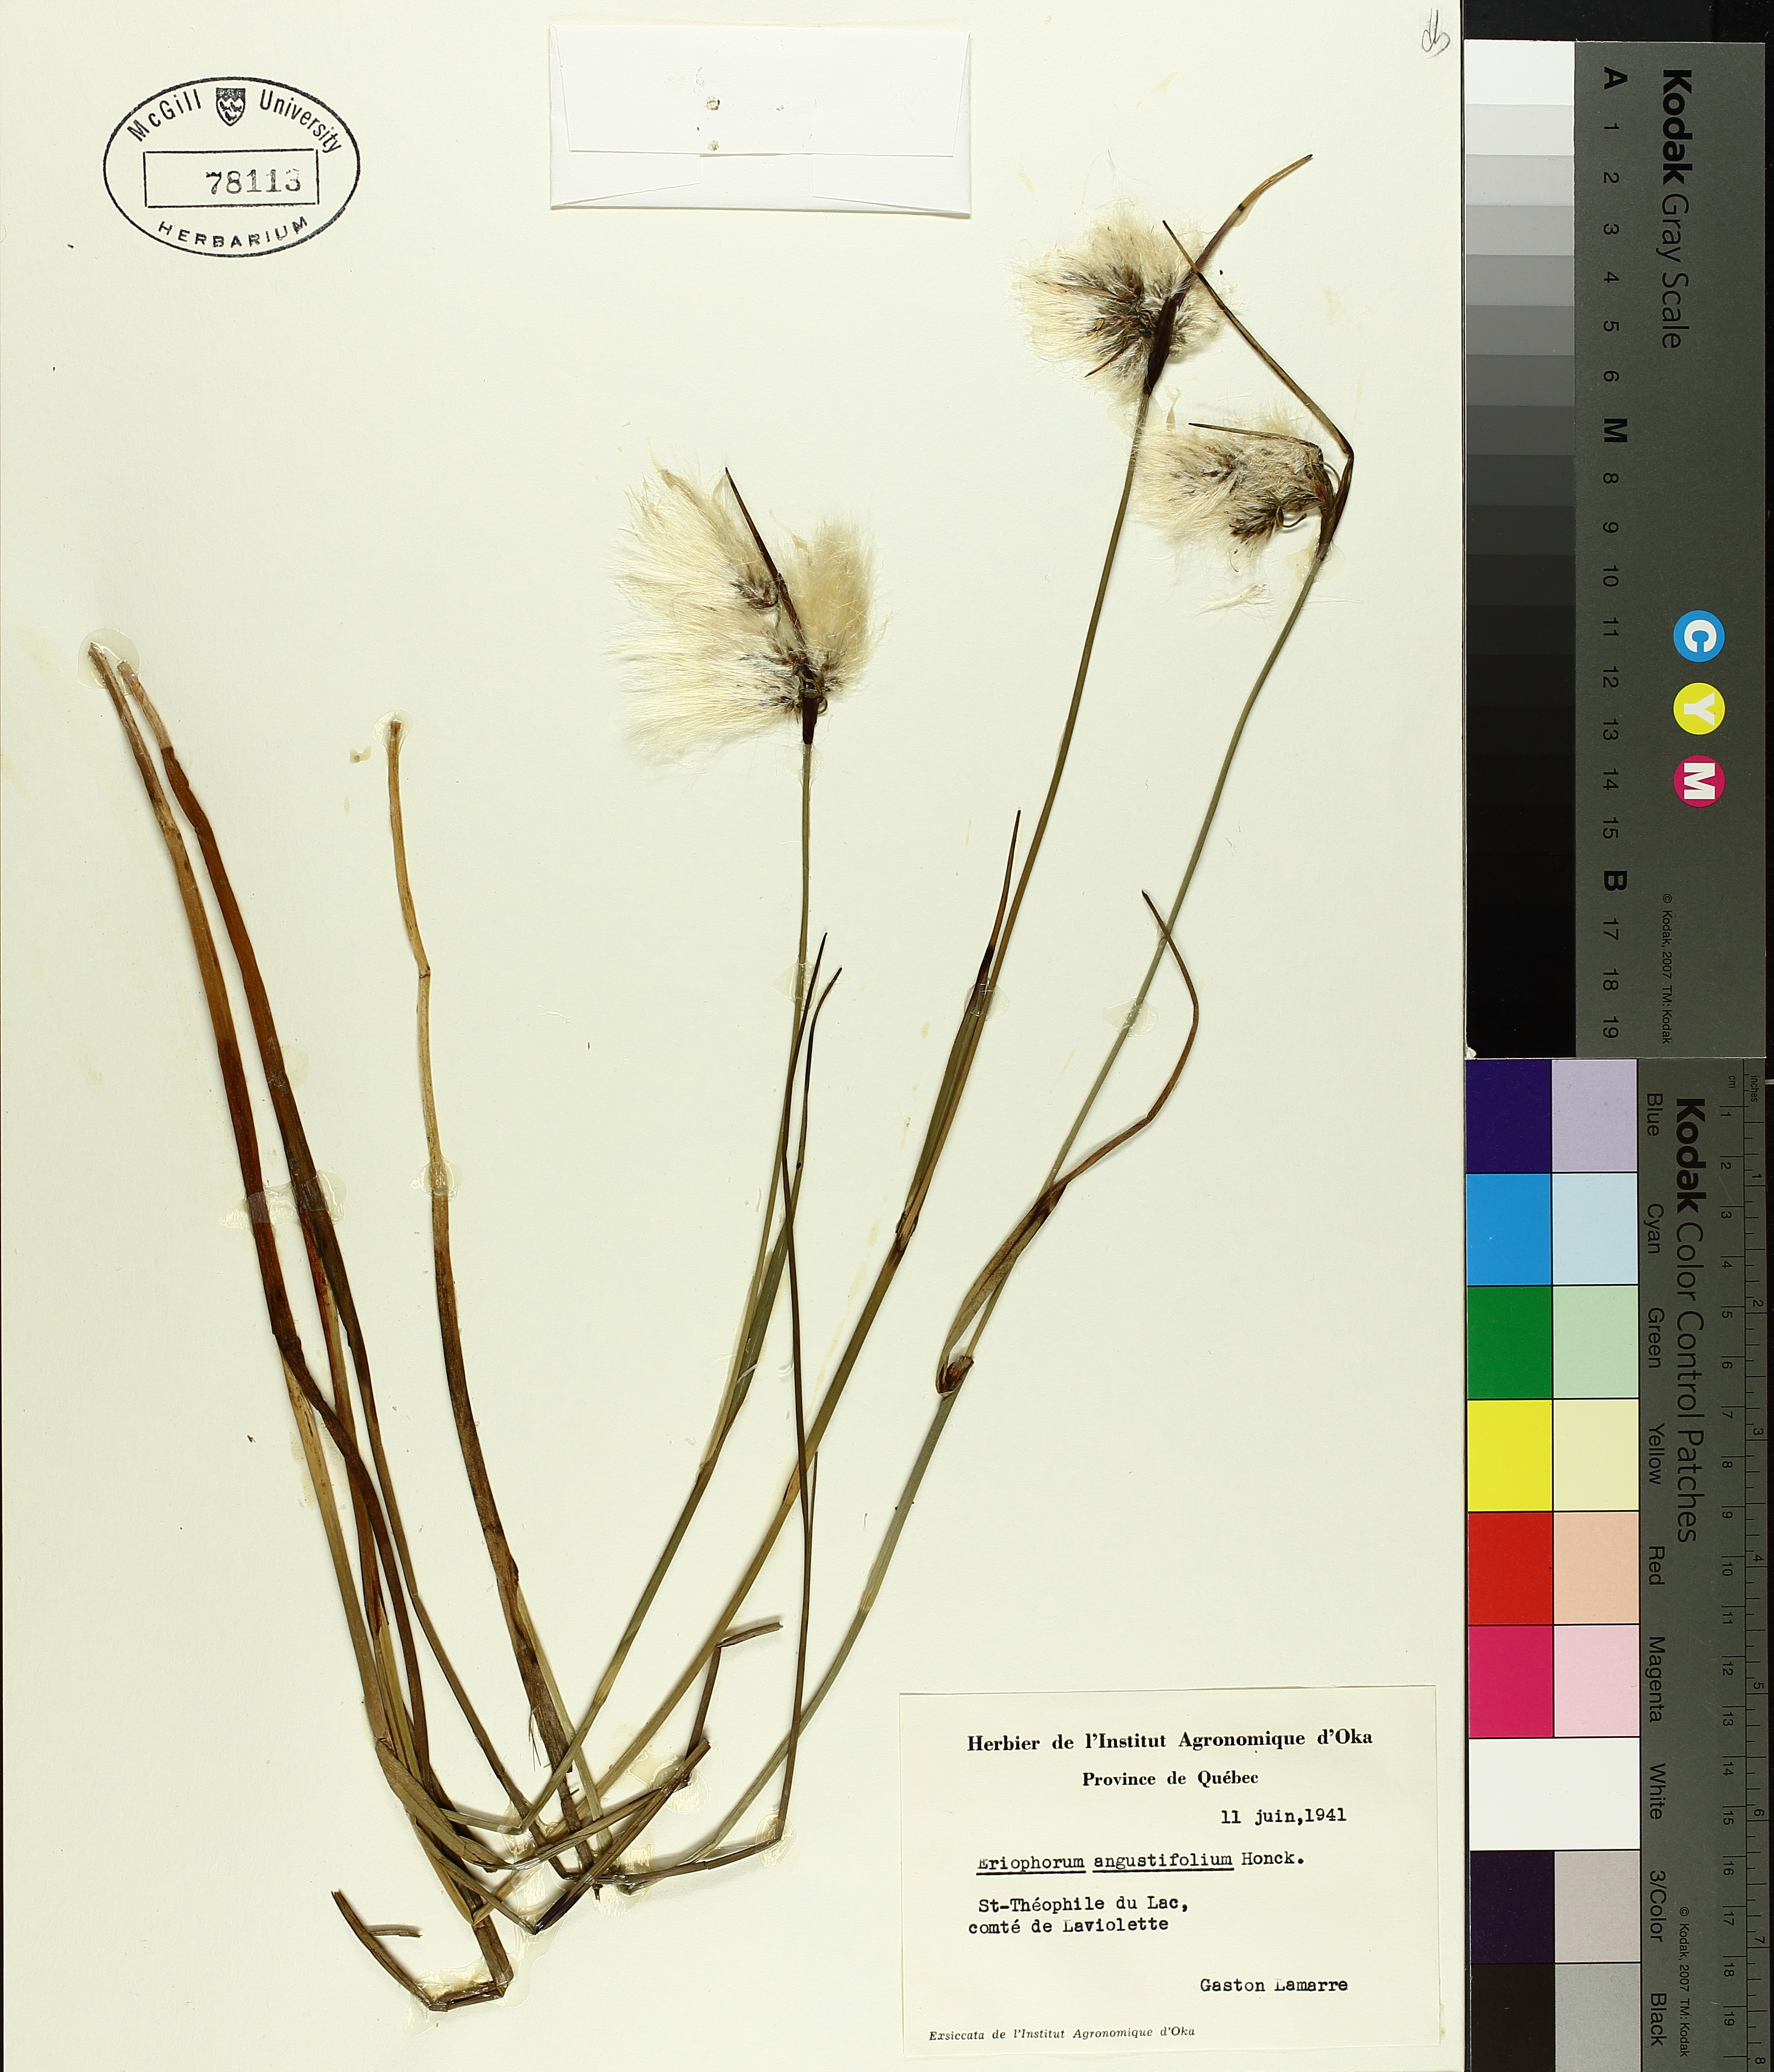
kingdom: Plantae
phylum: Tracheophyta
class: Liliopsida
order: Poales
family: Cyperaceae
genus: Eriophorum
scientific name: Eriophorum triste
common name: Tall cottongrass
